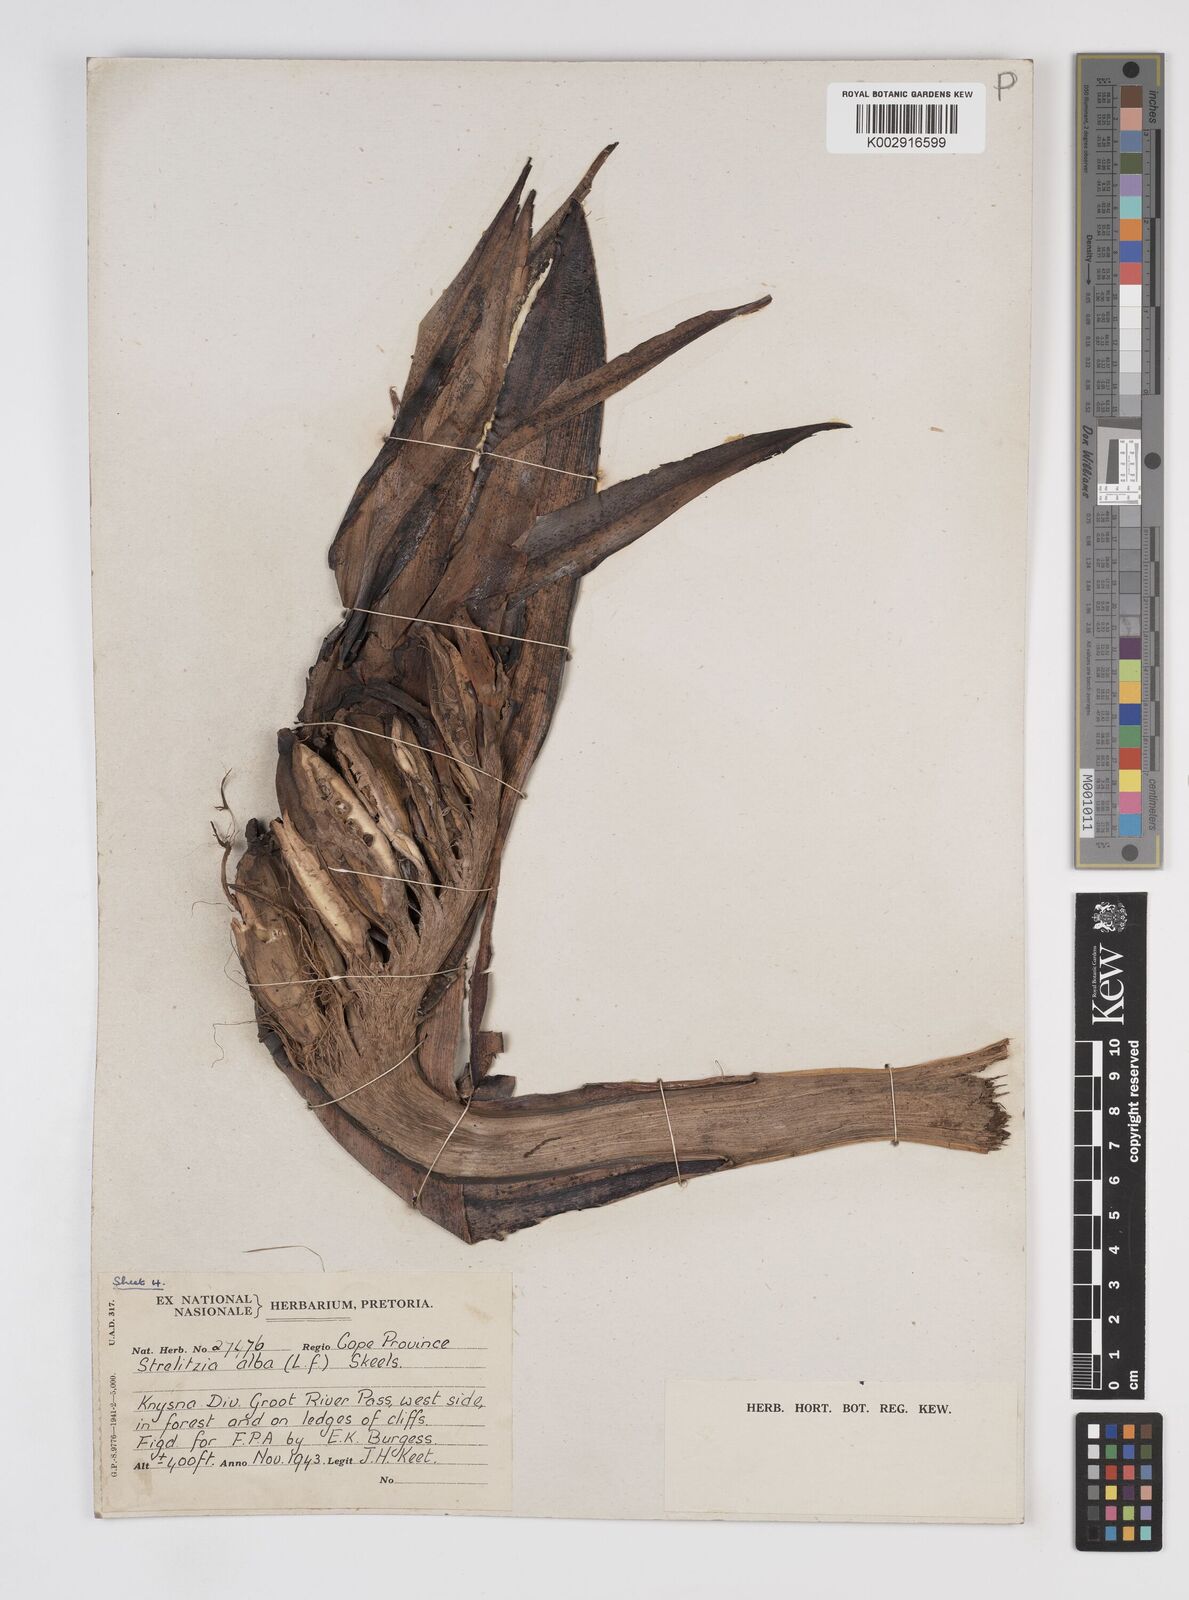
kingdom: Plantae
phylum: Tracheophyta
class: Liliopsida
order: Zingiberales
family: Strelitziaceae
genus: Strelitzia
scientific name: Strelitzia alba
